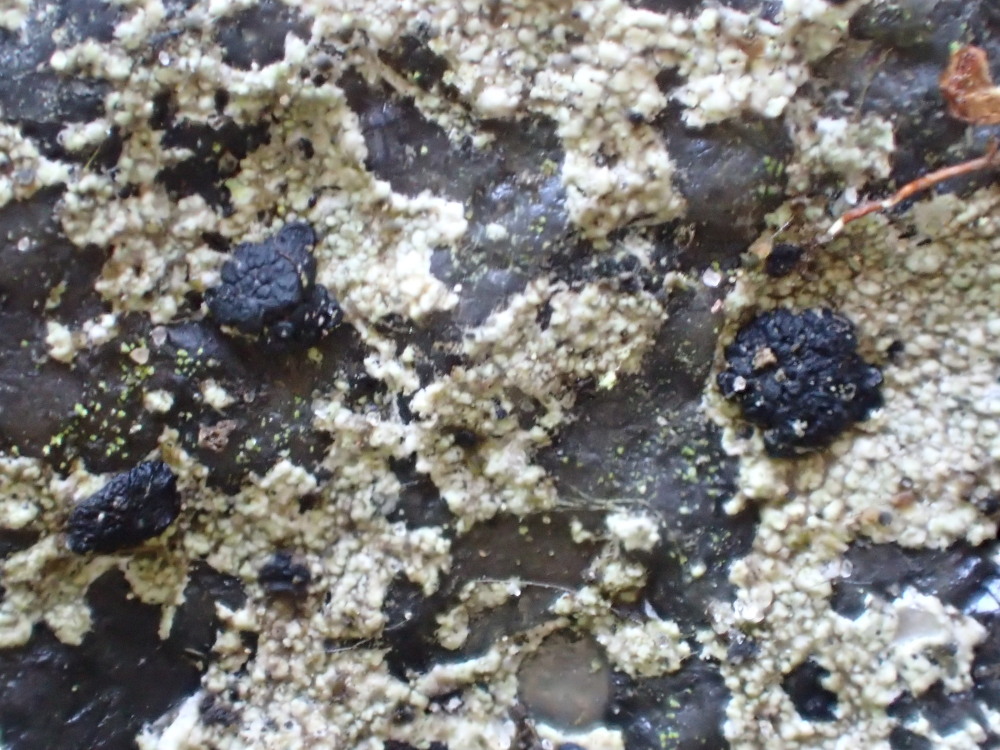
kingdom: Fungi
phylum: Ascomycota
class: Lecanoromycetes
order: Lecanorales
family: Lecanoraceae
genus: Lecidella
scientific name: Lecidella scabra
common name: skurvet skivelav
